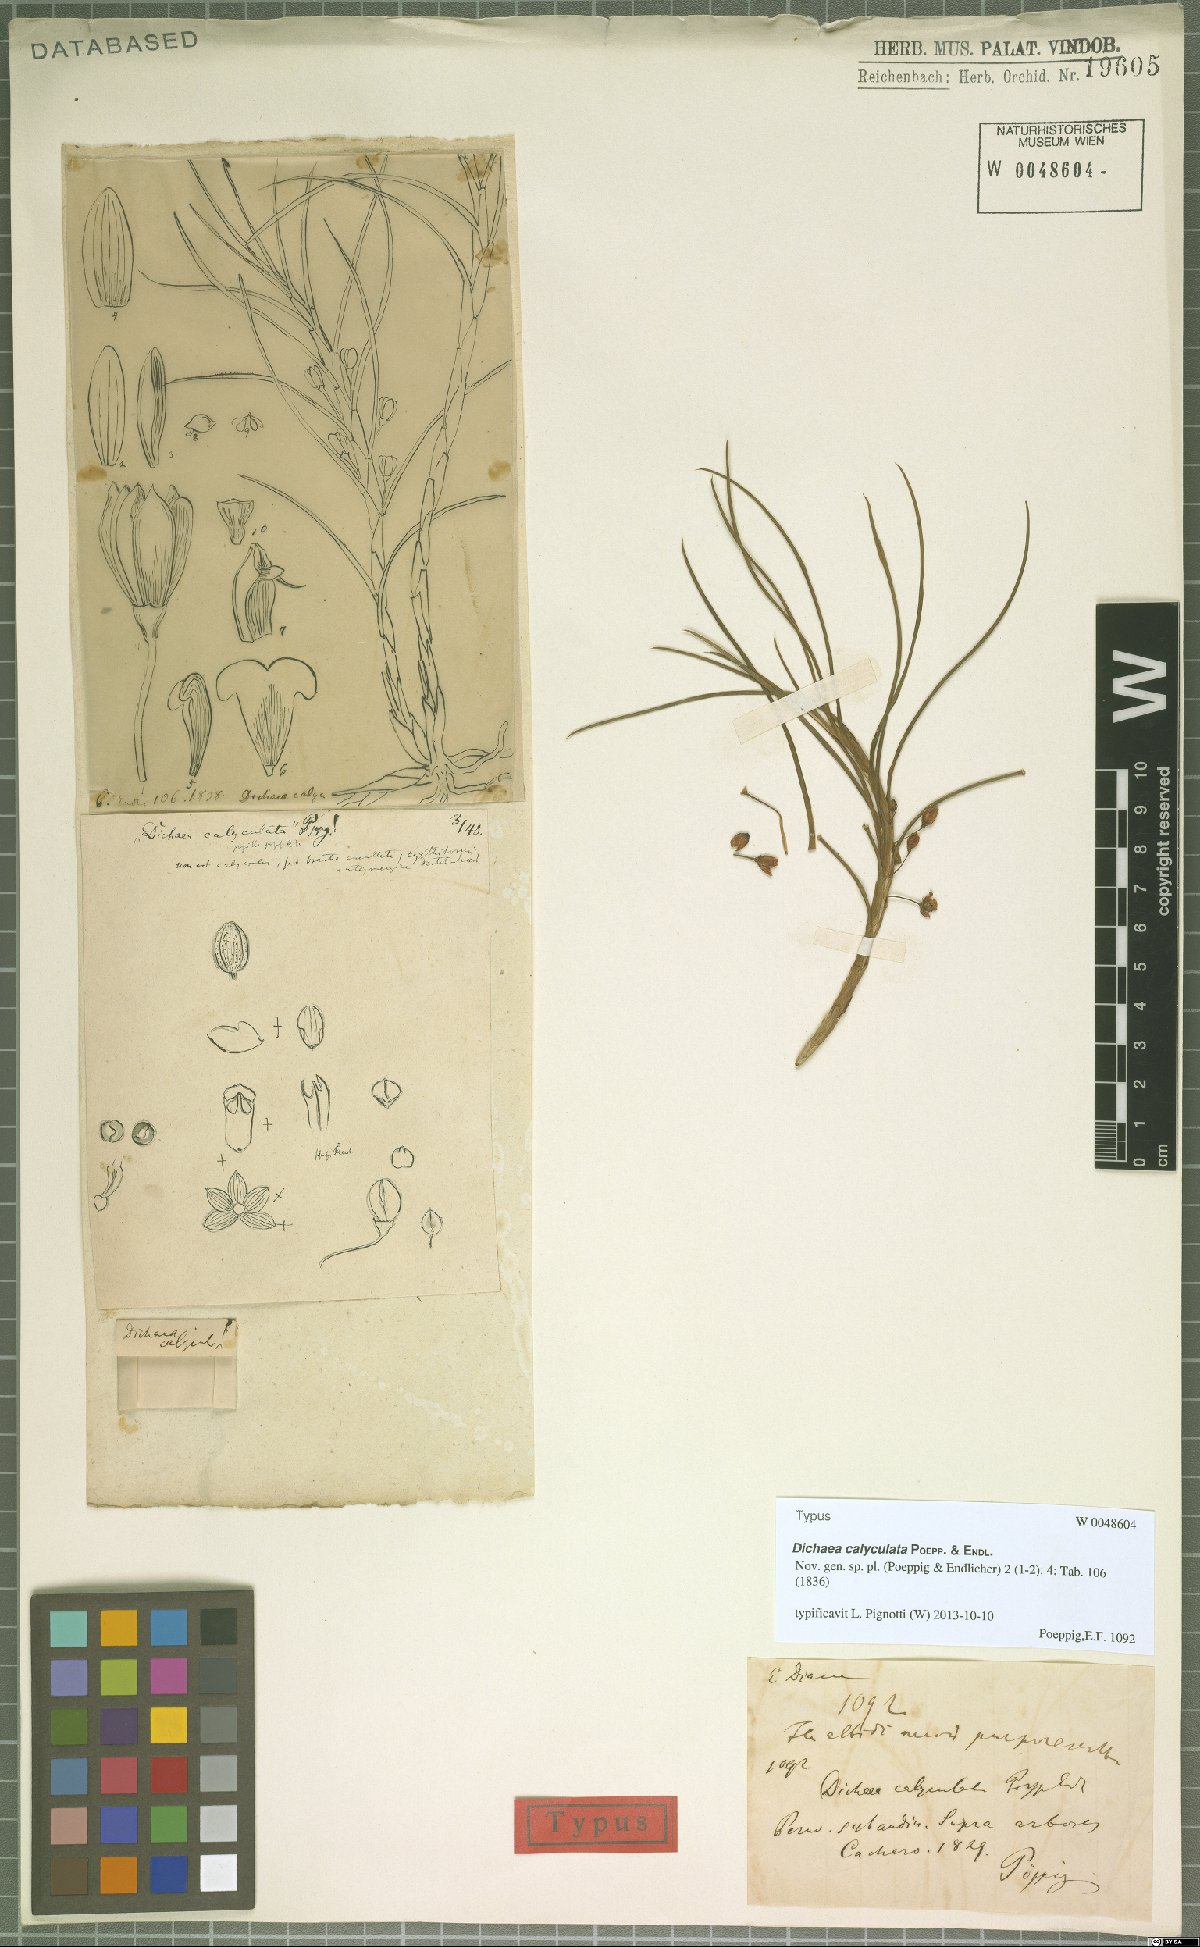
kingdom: Plantae
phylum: Tracheophyta
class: Liliopsida
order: Asparagales
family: Orchidaceae
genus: Dichaea
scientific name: Dichaea calyculata
